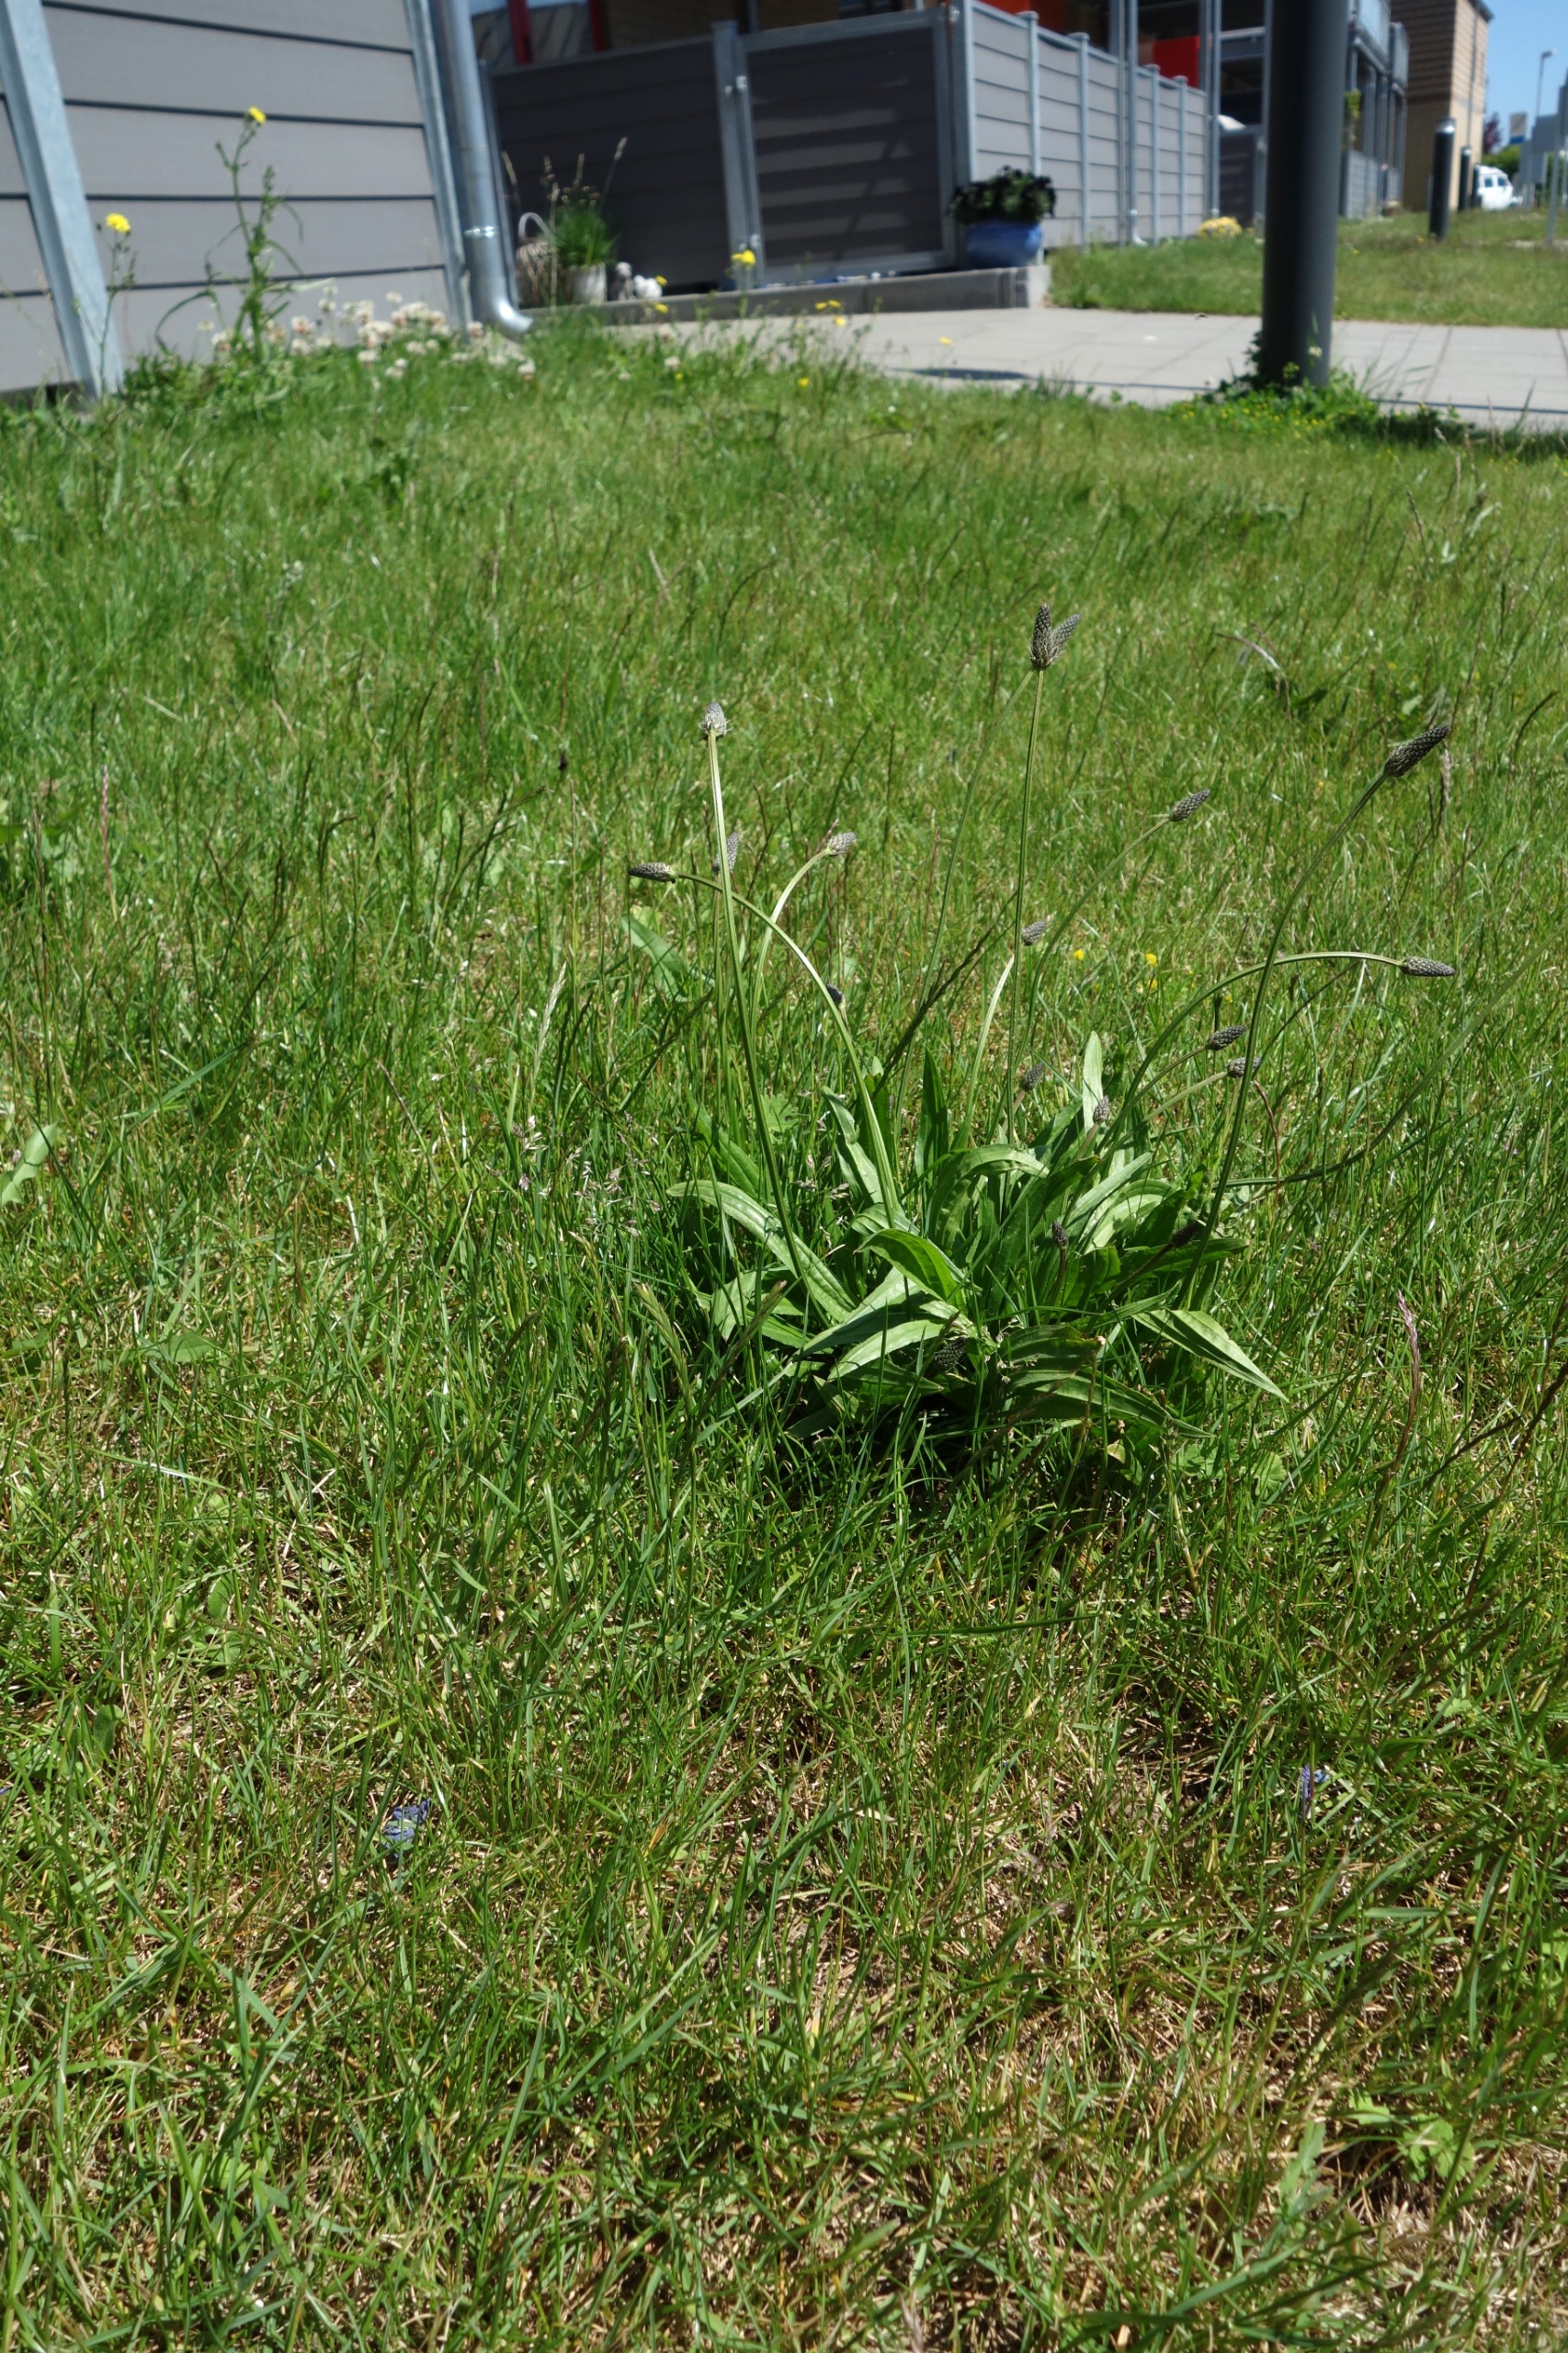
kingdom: Plantae
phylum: Tracheophyta
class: Magnoliopsida
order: Lamiales
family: Plantaginaceae
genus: Plantago
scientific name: Plantago lanceolata
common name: Lancet-vejbred
